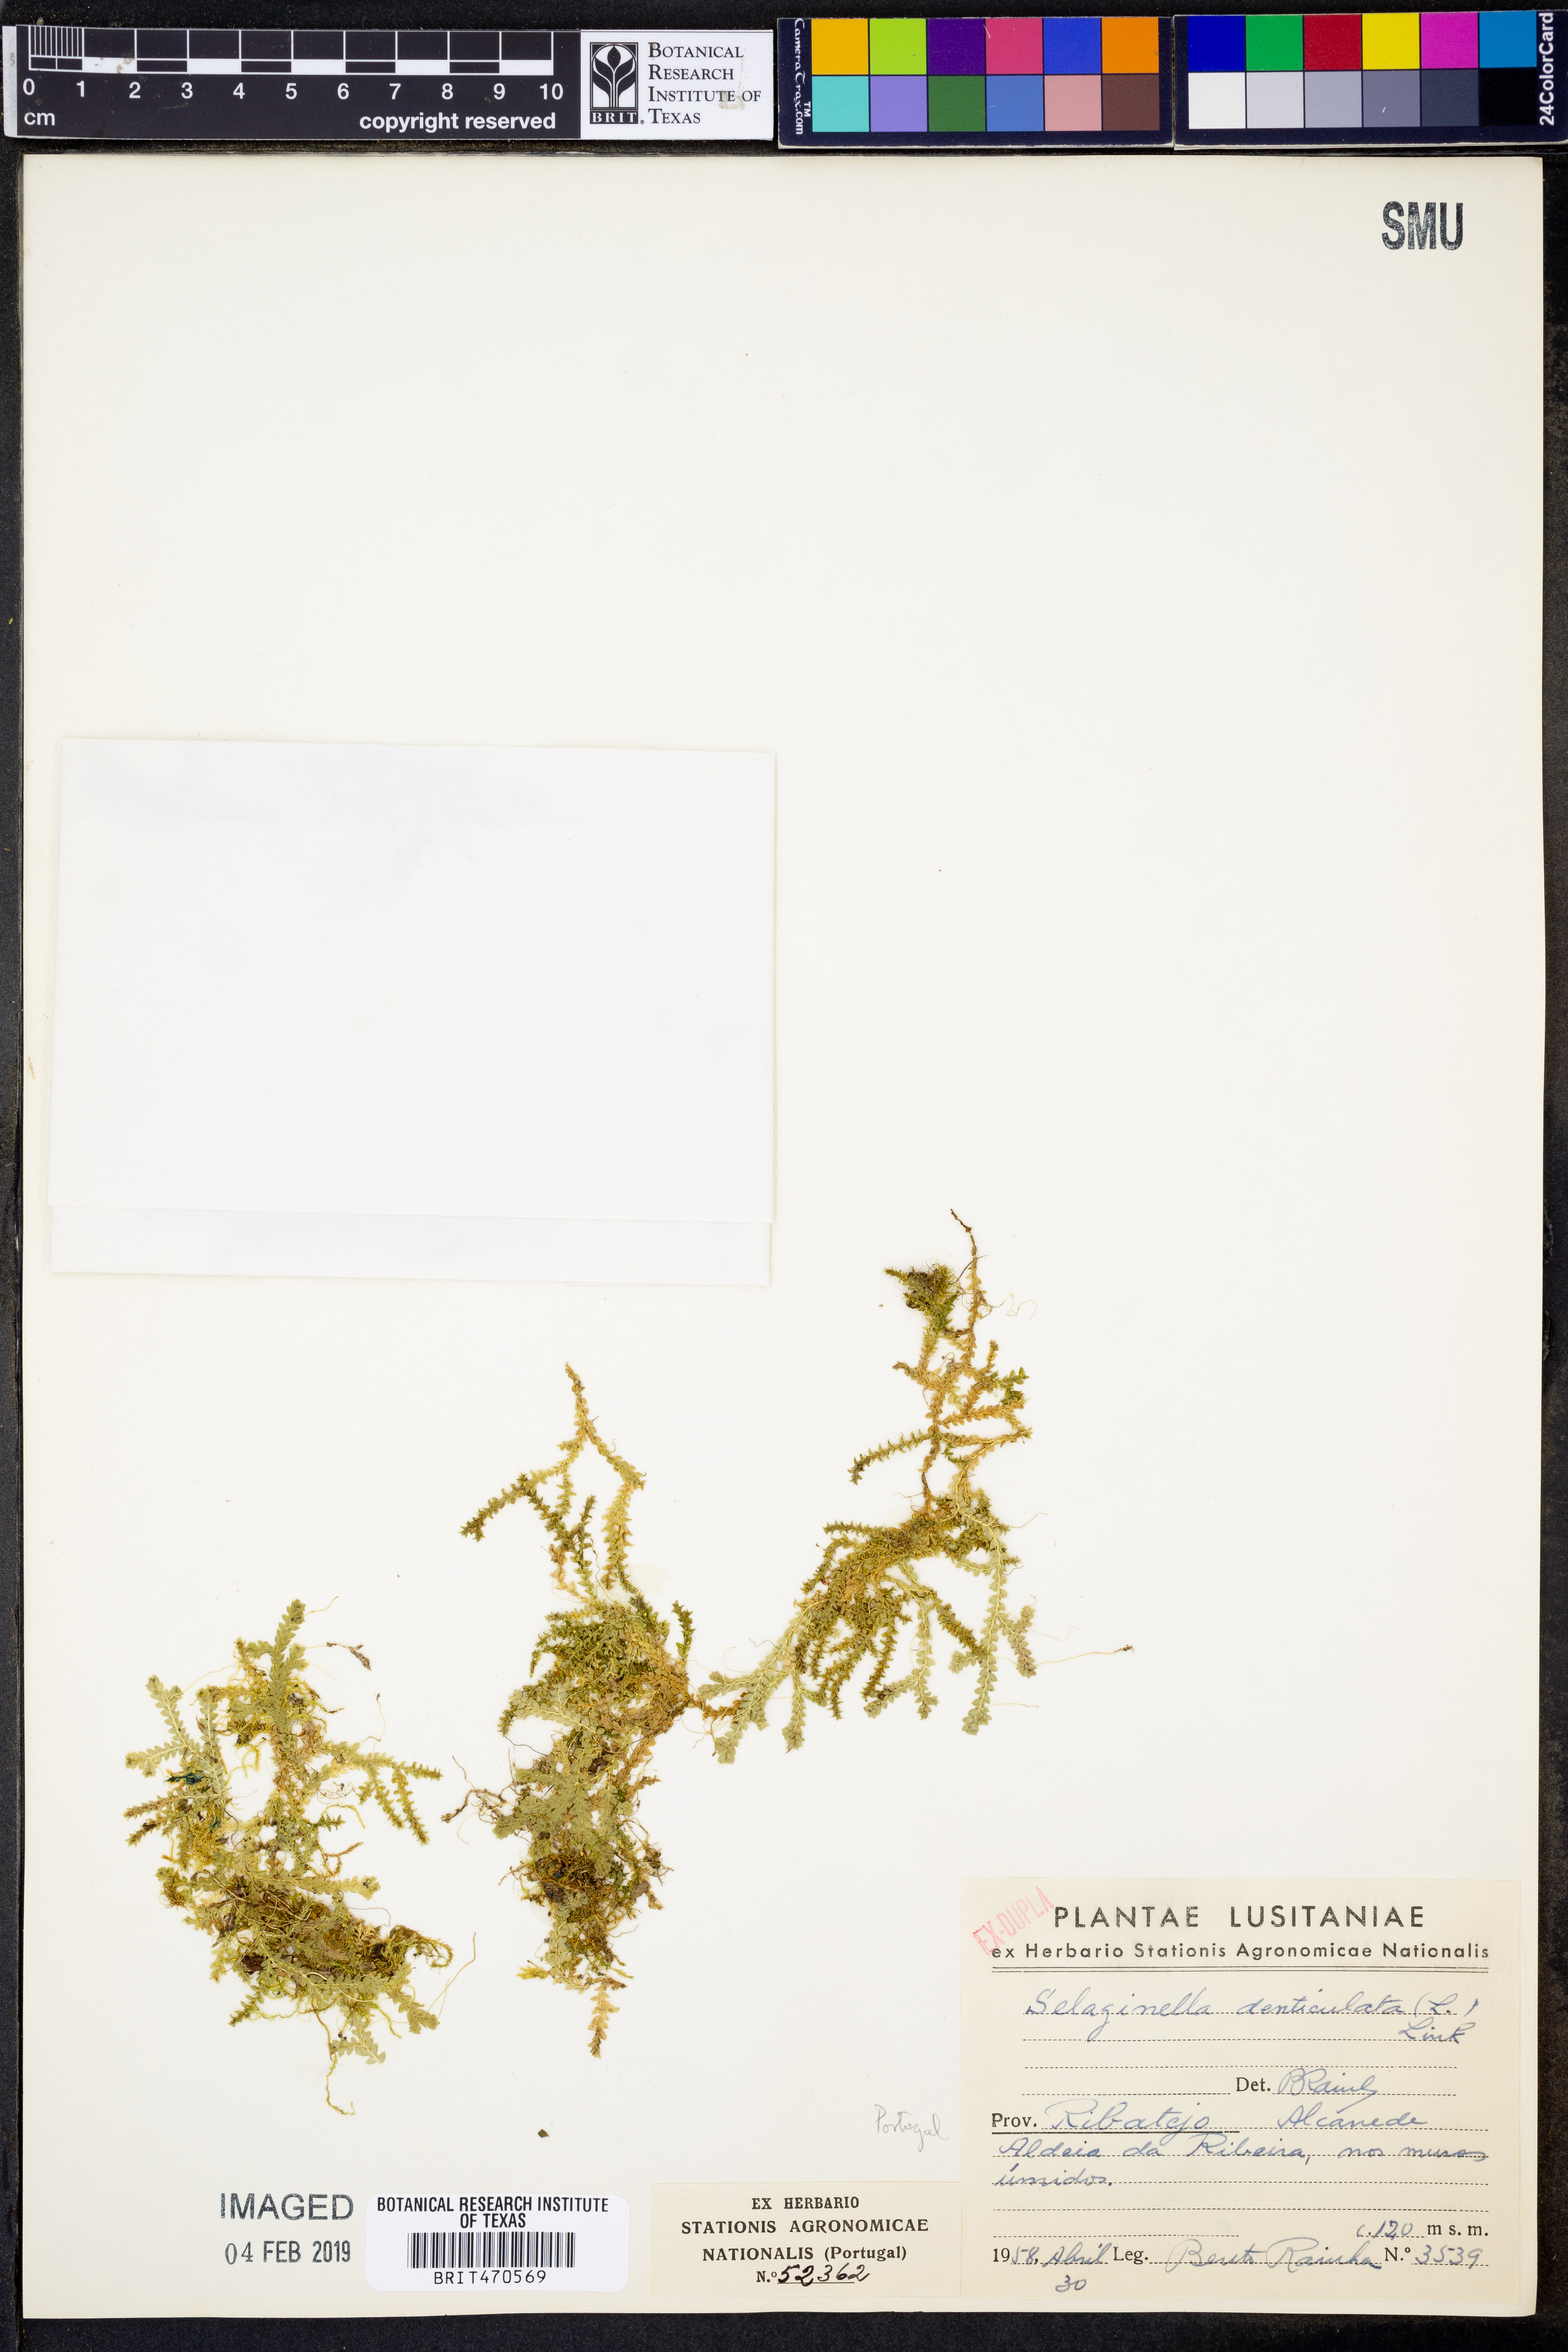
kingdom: Plantae
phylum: Tracheophyta
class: Lycopodiopsida
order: Selaginellales
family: Selaginellaceae
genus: Selaginella
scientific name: Selaginella denticulata
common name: Toothed-leaved clubmoss
